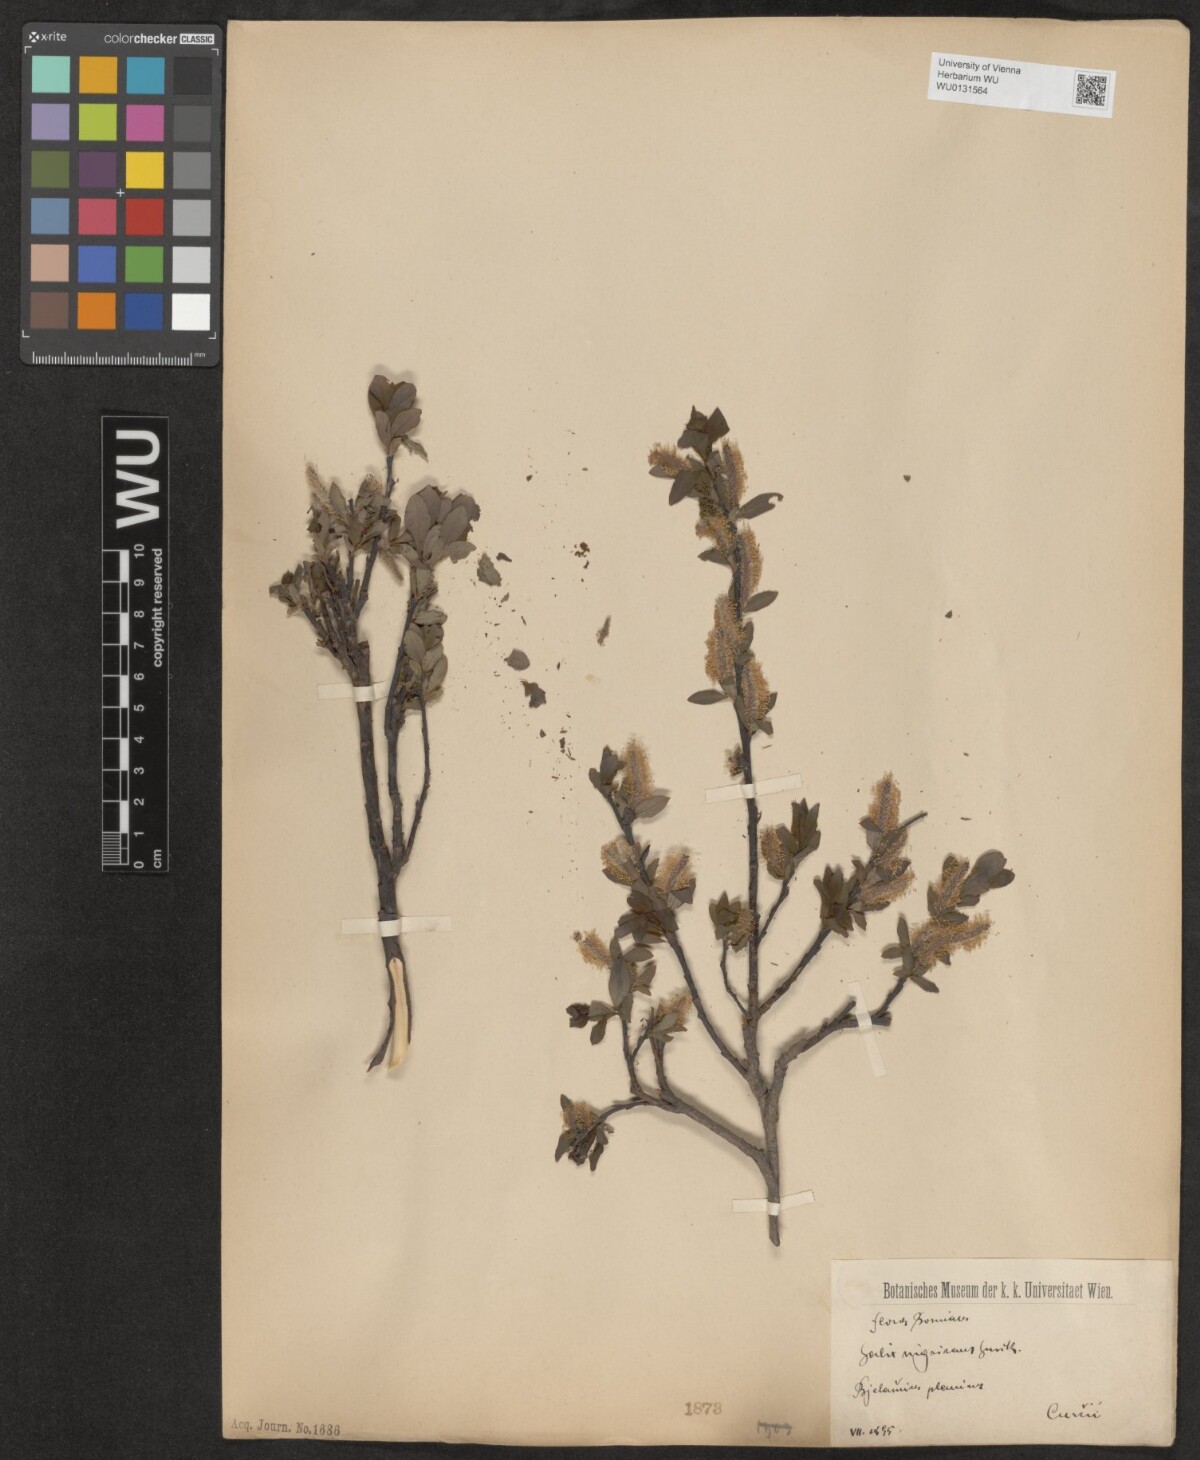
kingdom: Plantae
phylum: Tracheophyta
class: Magnoliopsida
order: Malpighiales
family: Salicaceae
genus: Salix
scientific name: Salix myrsinifolia
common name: Dark-leaved willow
